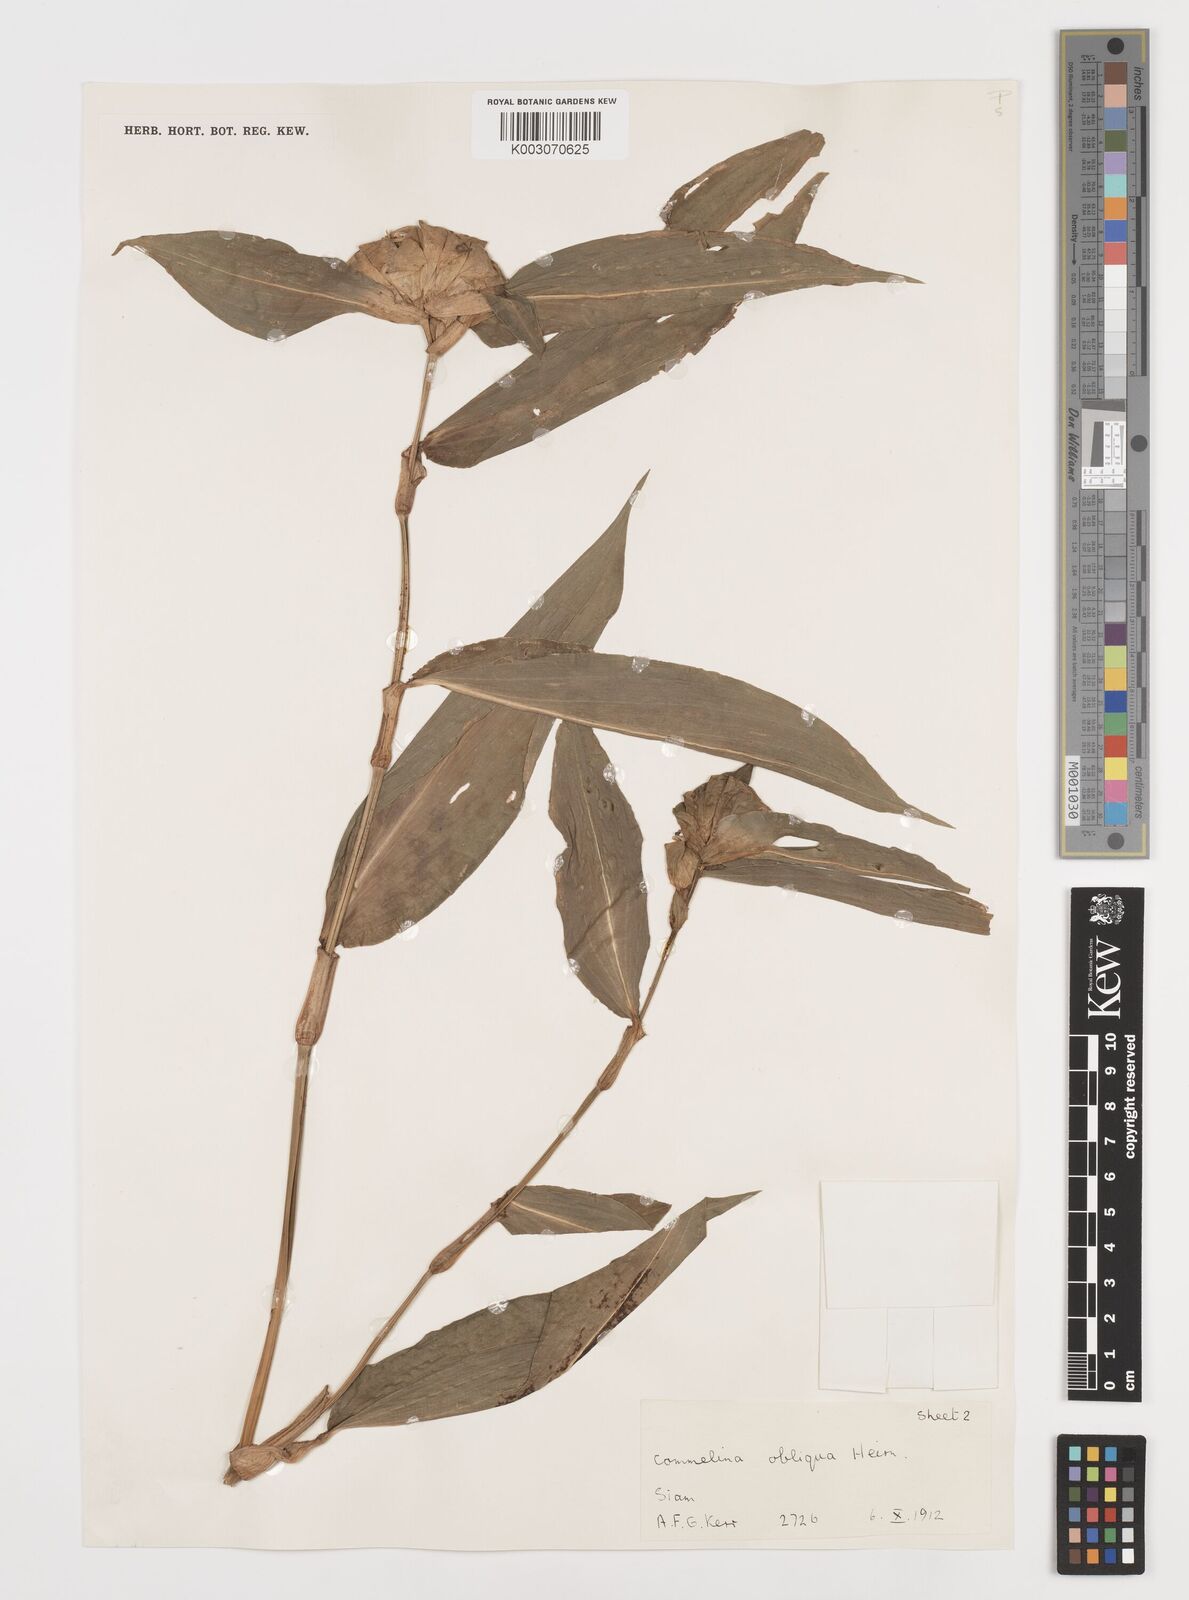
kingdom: Plantae
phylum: Tracheophyta
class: Liliopsida
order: Commelinales
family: Commelinaceae
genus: Commelina
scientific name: Commelina paludosa
